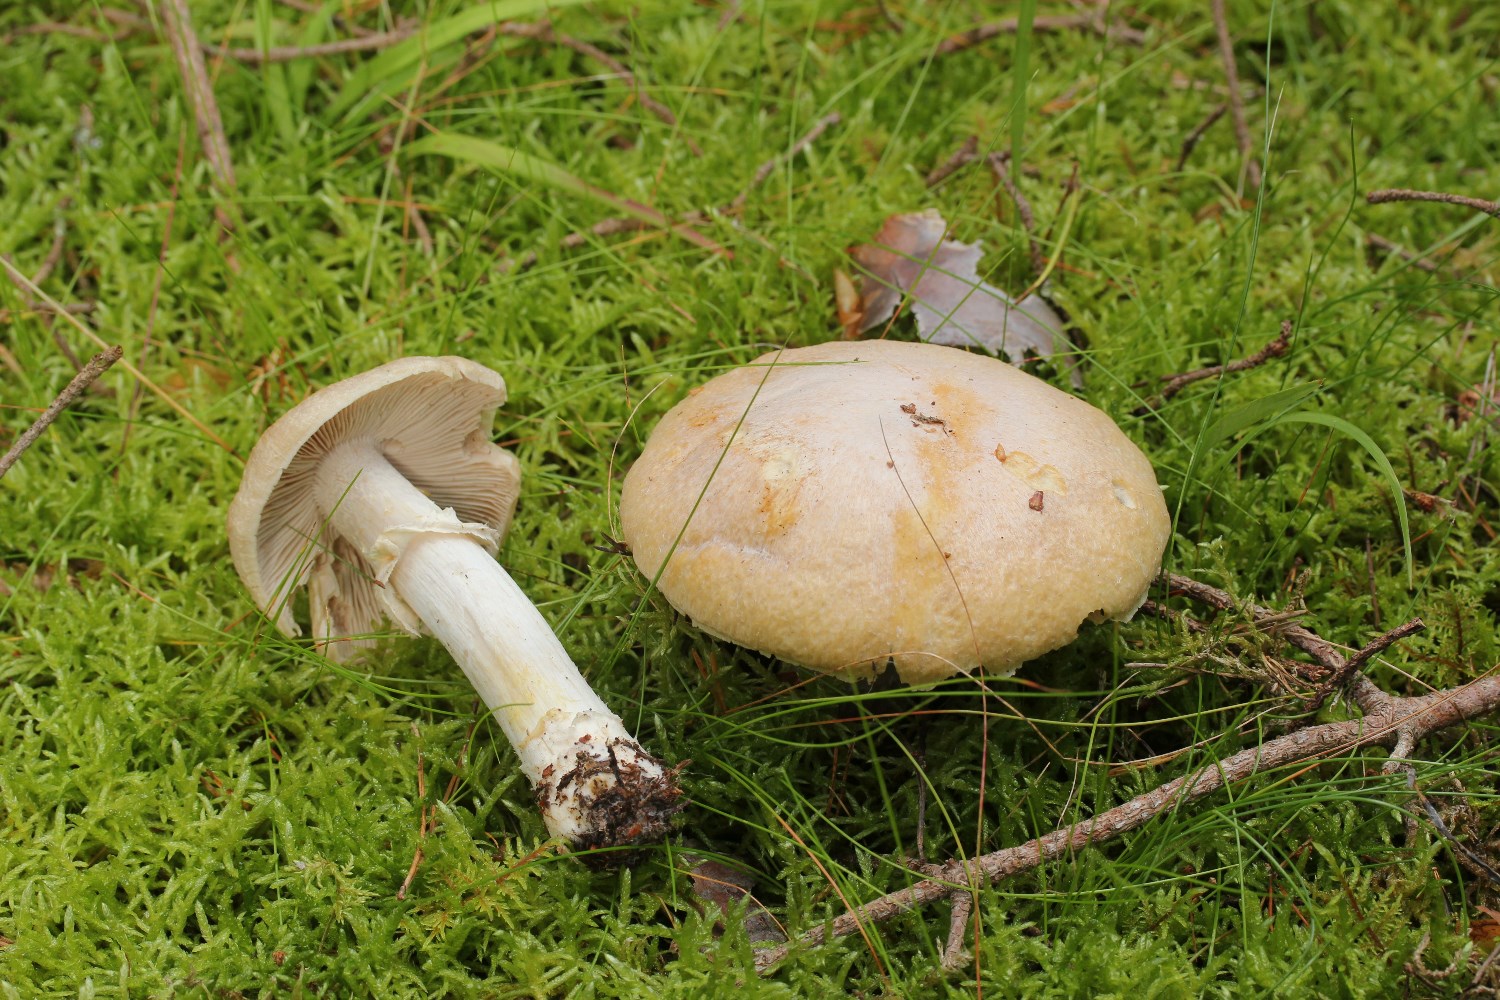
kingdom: Fungi
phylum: Basidiomycota
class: Agaricomycetes
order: Agaricales
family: Cortinariaceae
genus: Cortinarius
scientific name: Cortinarius caperatus
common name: klidhat
